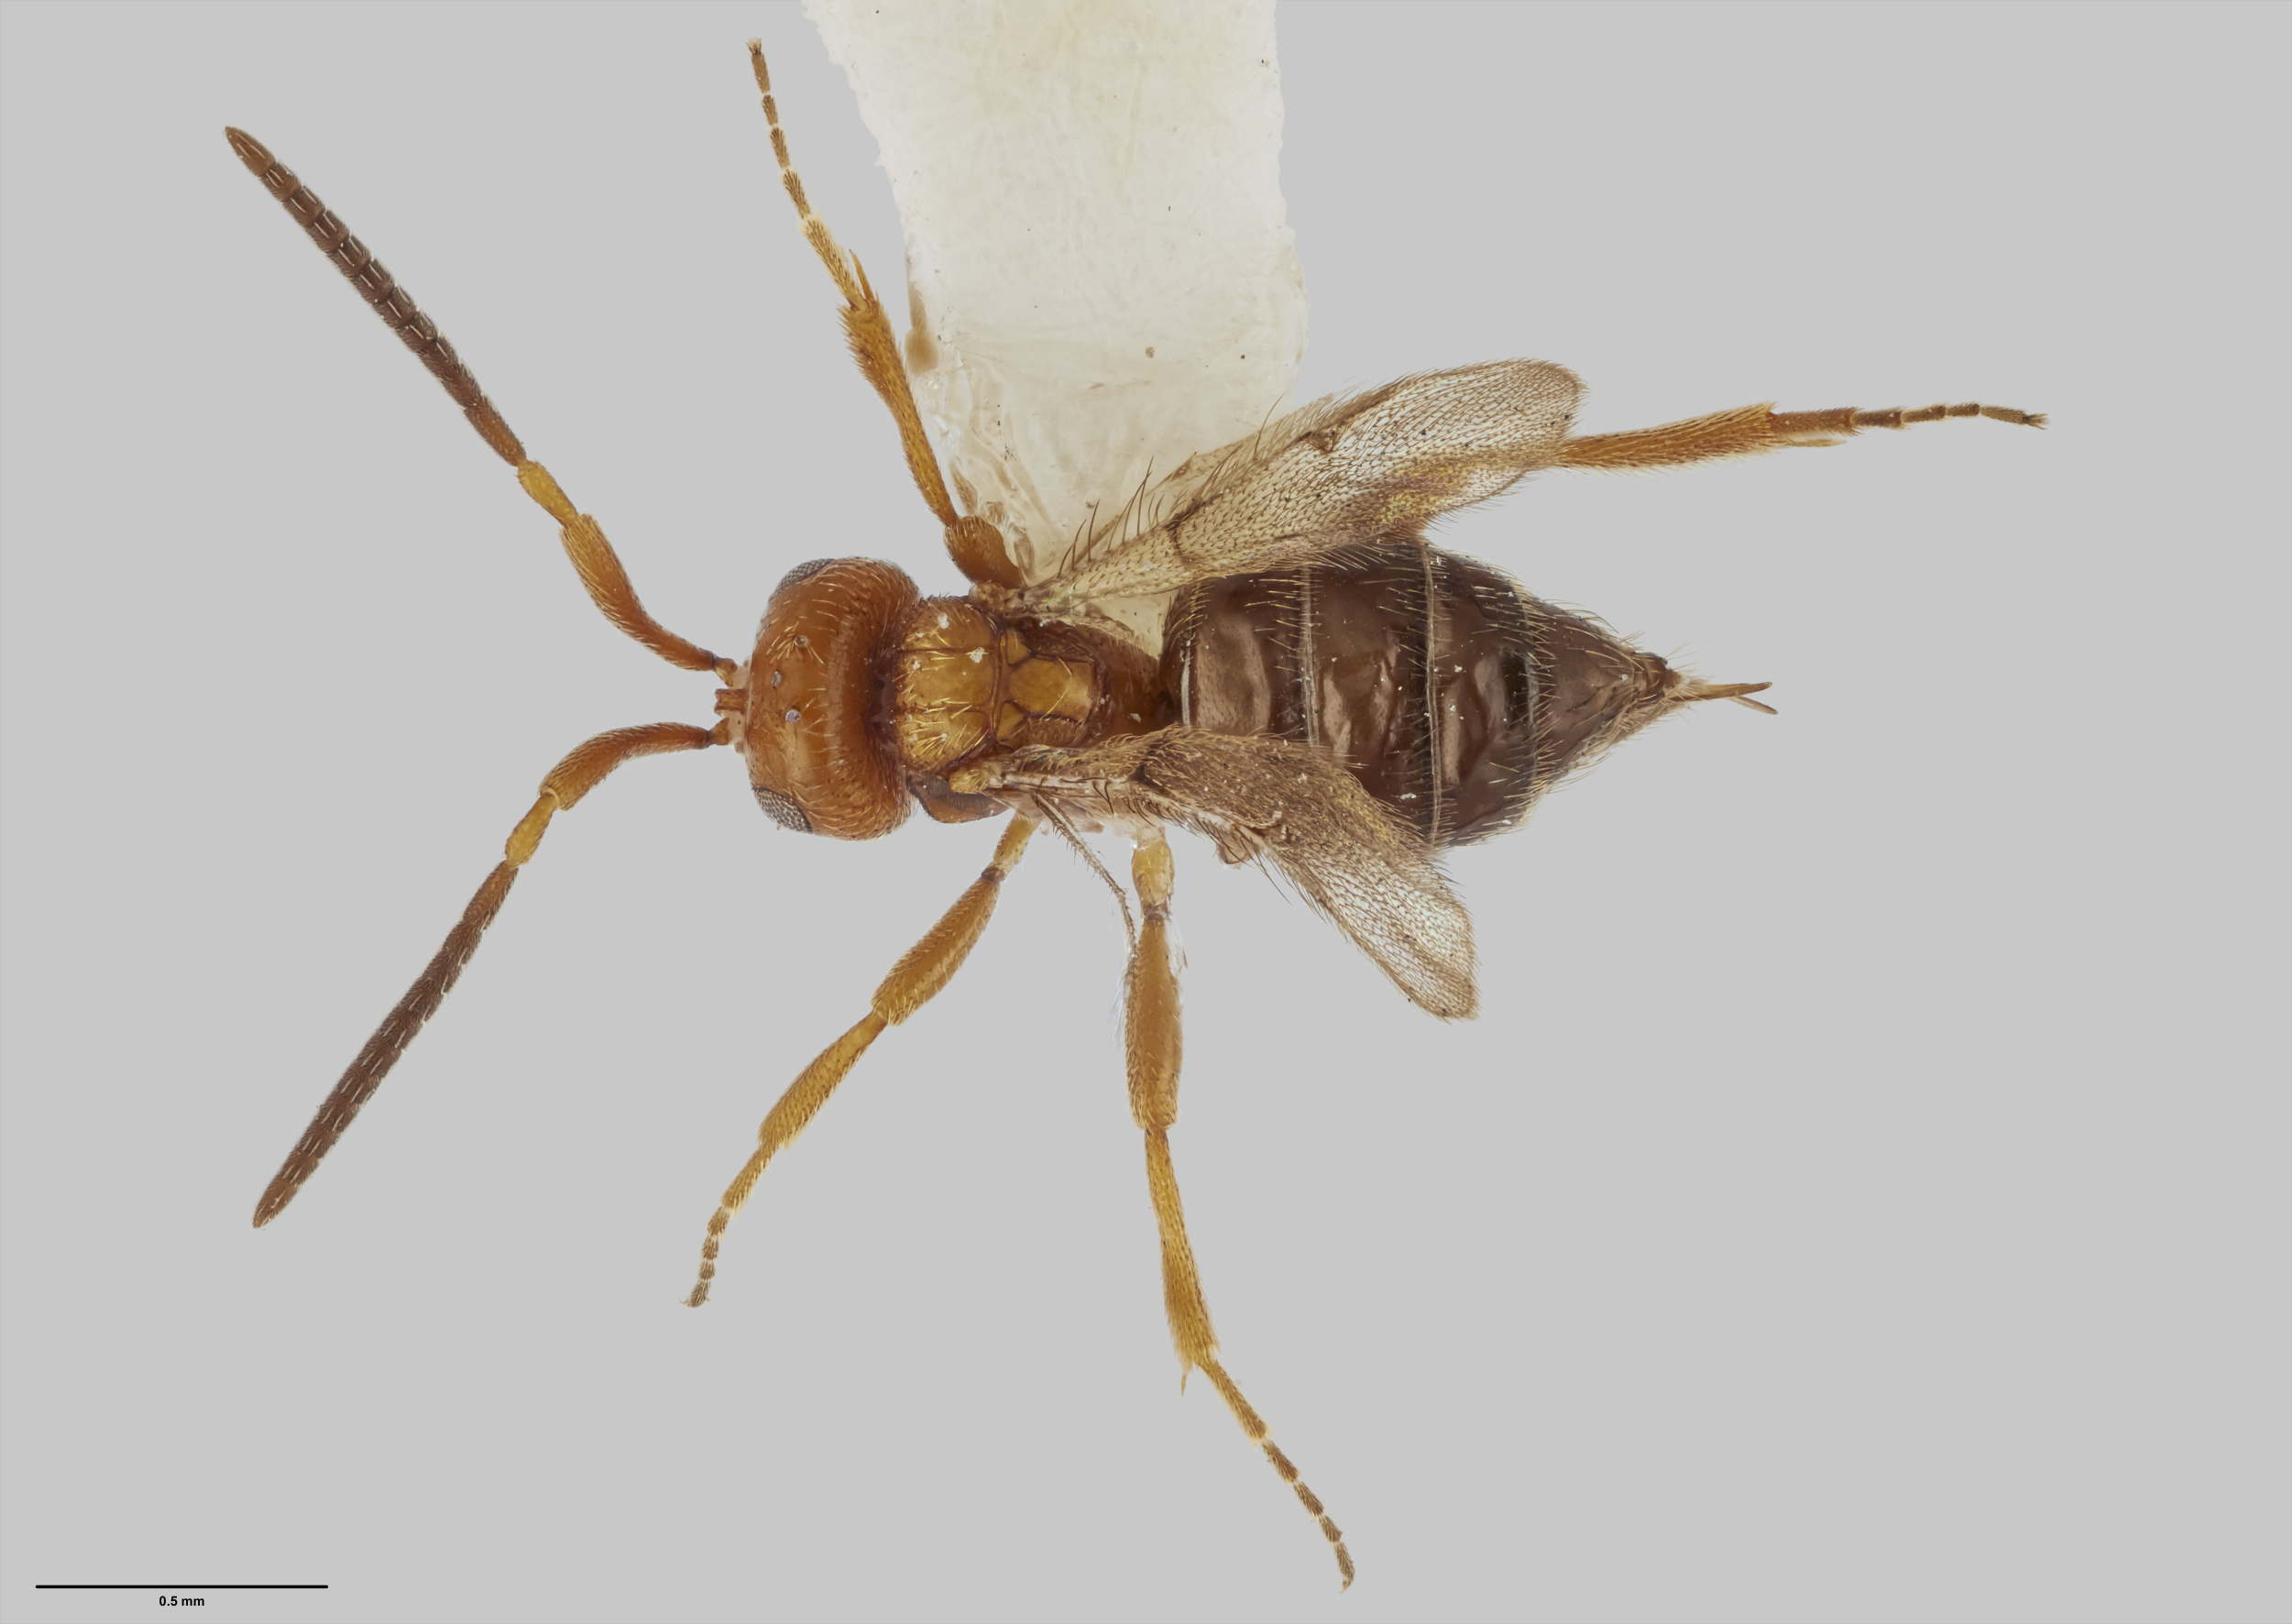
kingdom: Animalia
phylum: Arthropoda
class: Insecta
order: Hymenoptera
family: Maamingidae
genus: Maaminga
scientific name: Maaminga marrisi
